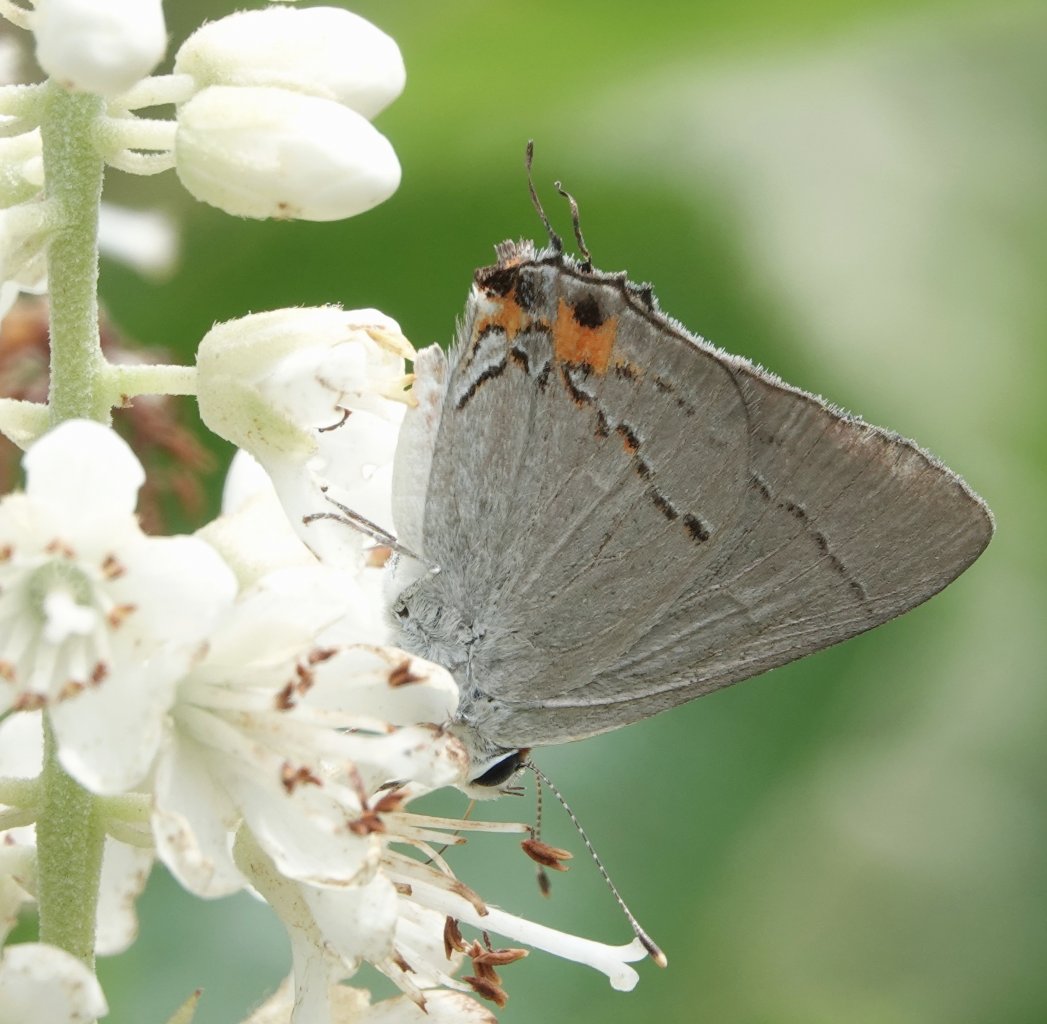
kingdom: Animalia
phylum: Arthropoda
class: Insecta
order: Lepidoptera
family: Lycaenidae
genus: Strymon
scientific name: Strymon melinus
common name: Gray Hairstreak
